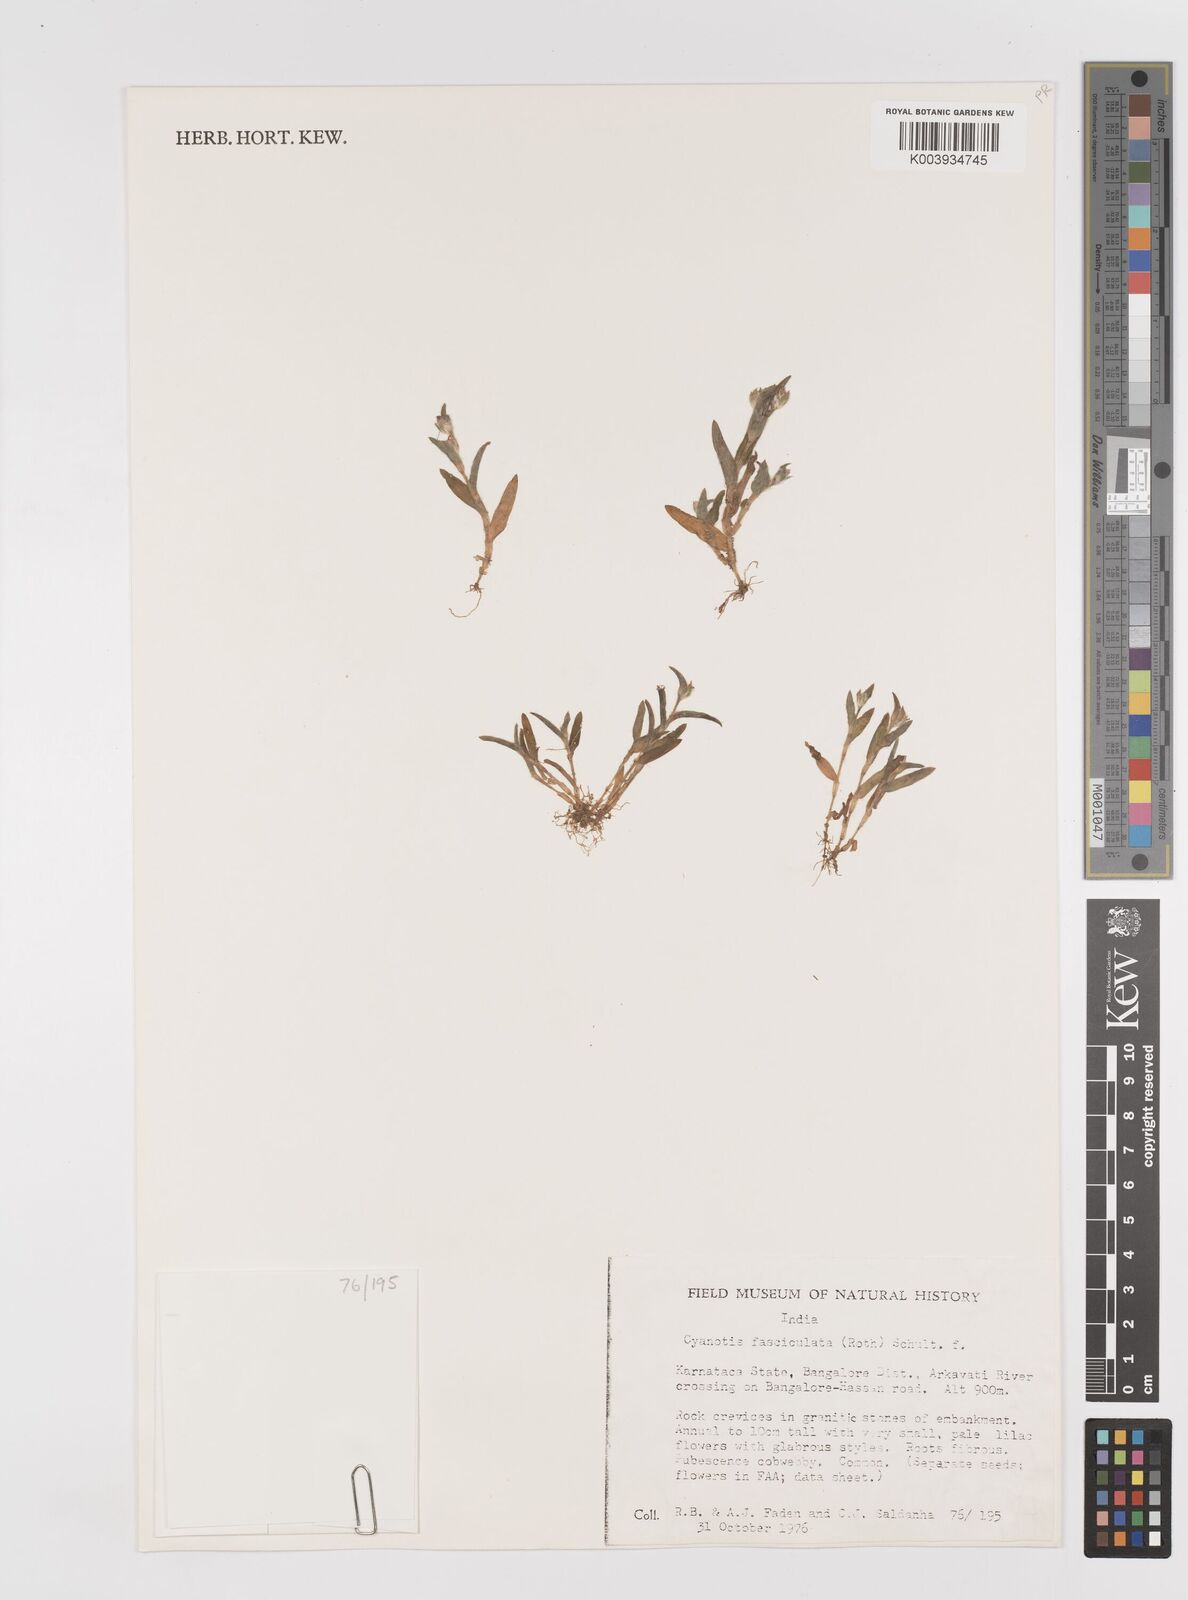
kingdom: Plantae
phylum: Tracheophyta
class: Liliopsida
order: Commelinales
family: Commelinaceae
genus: Cyanotis
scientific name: Cyanotis fasciculata
